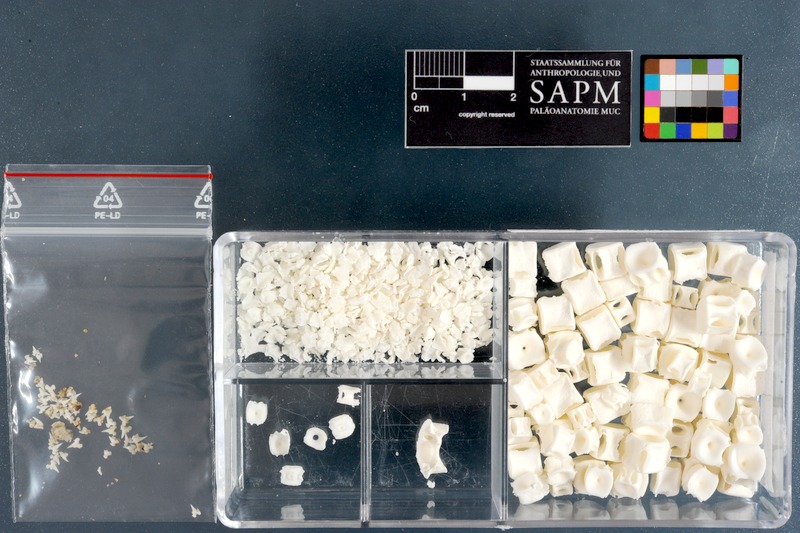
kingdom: Animalia
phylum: Chordata
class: Elasmobranchii
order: Carcharhiniformes
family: Scyliorhinidae
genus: Poroderma
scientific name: Poroderma pantherinum
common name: Leopard catshark
